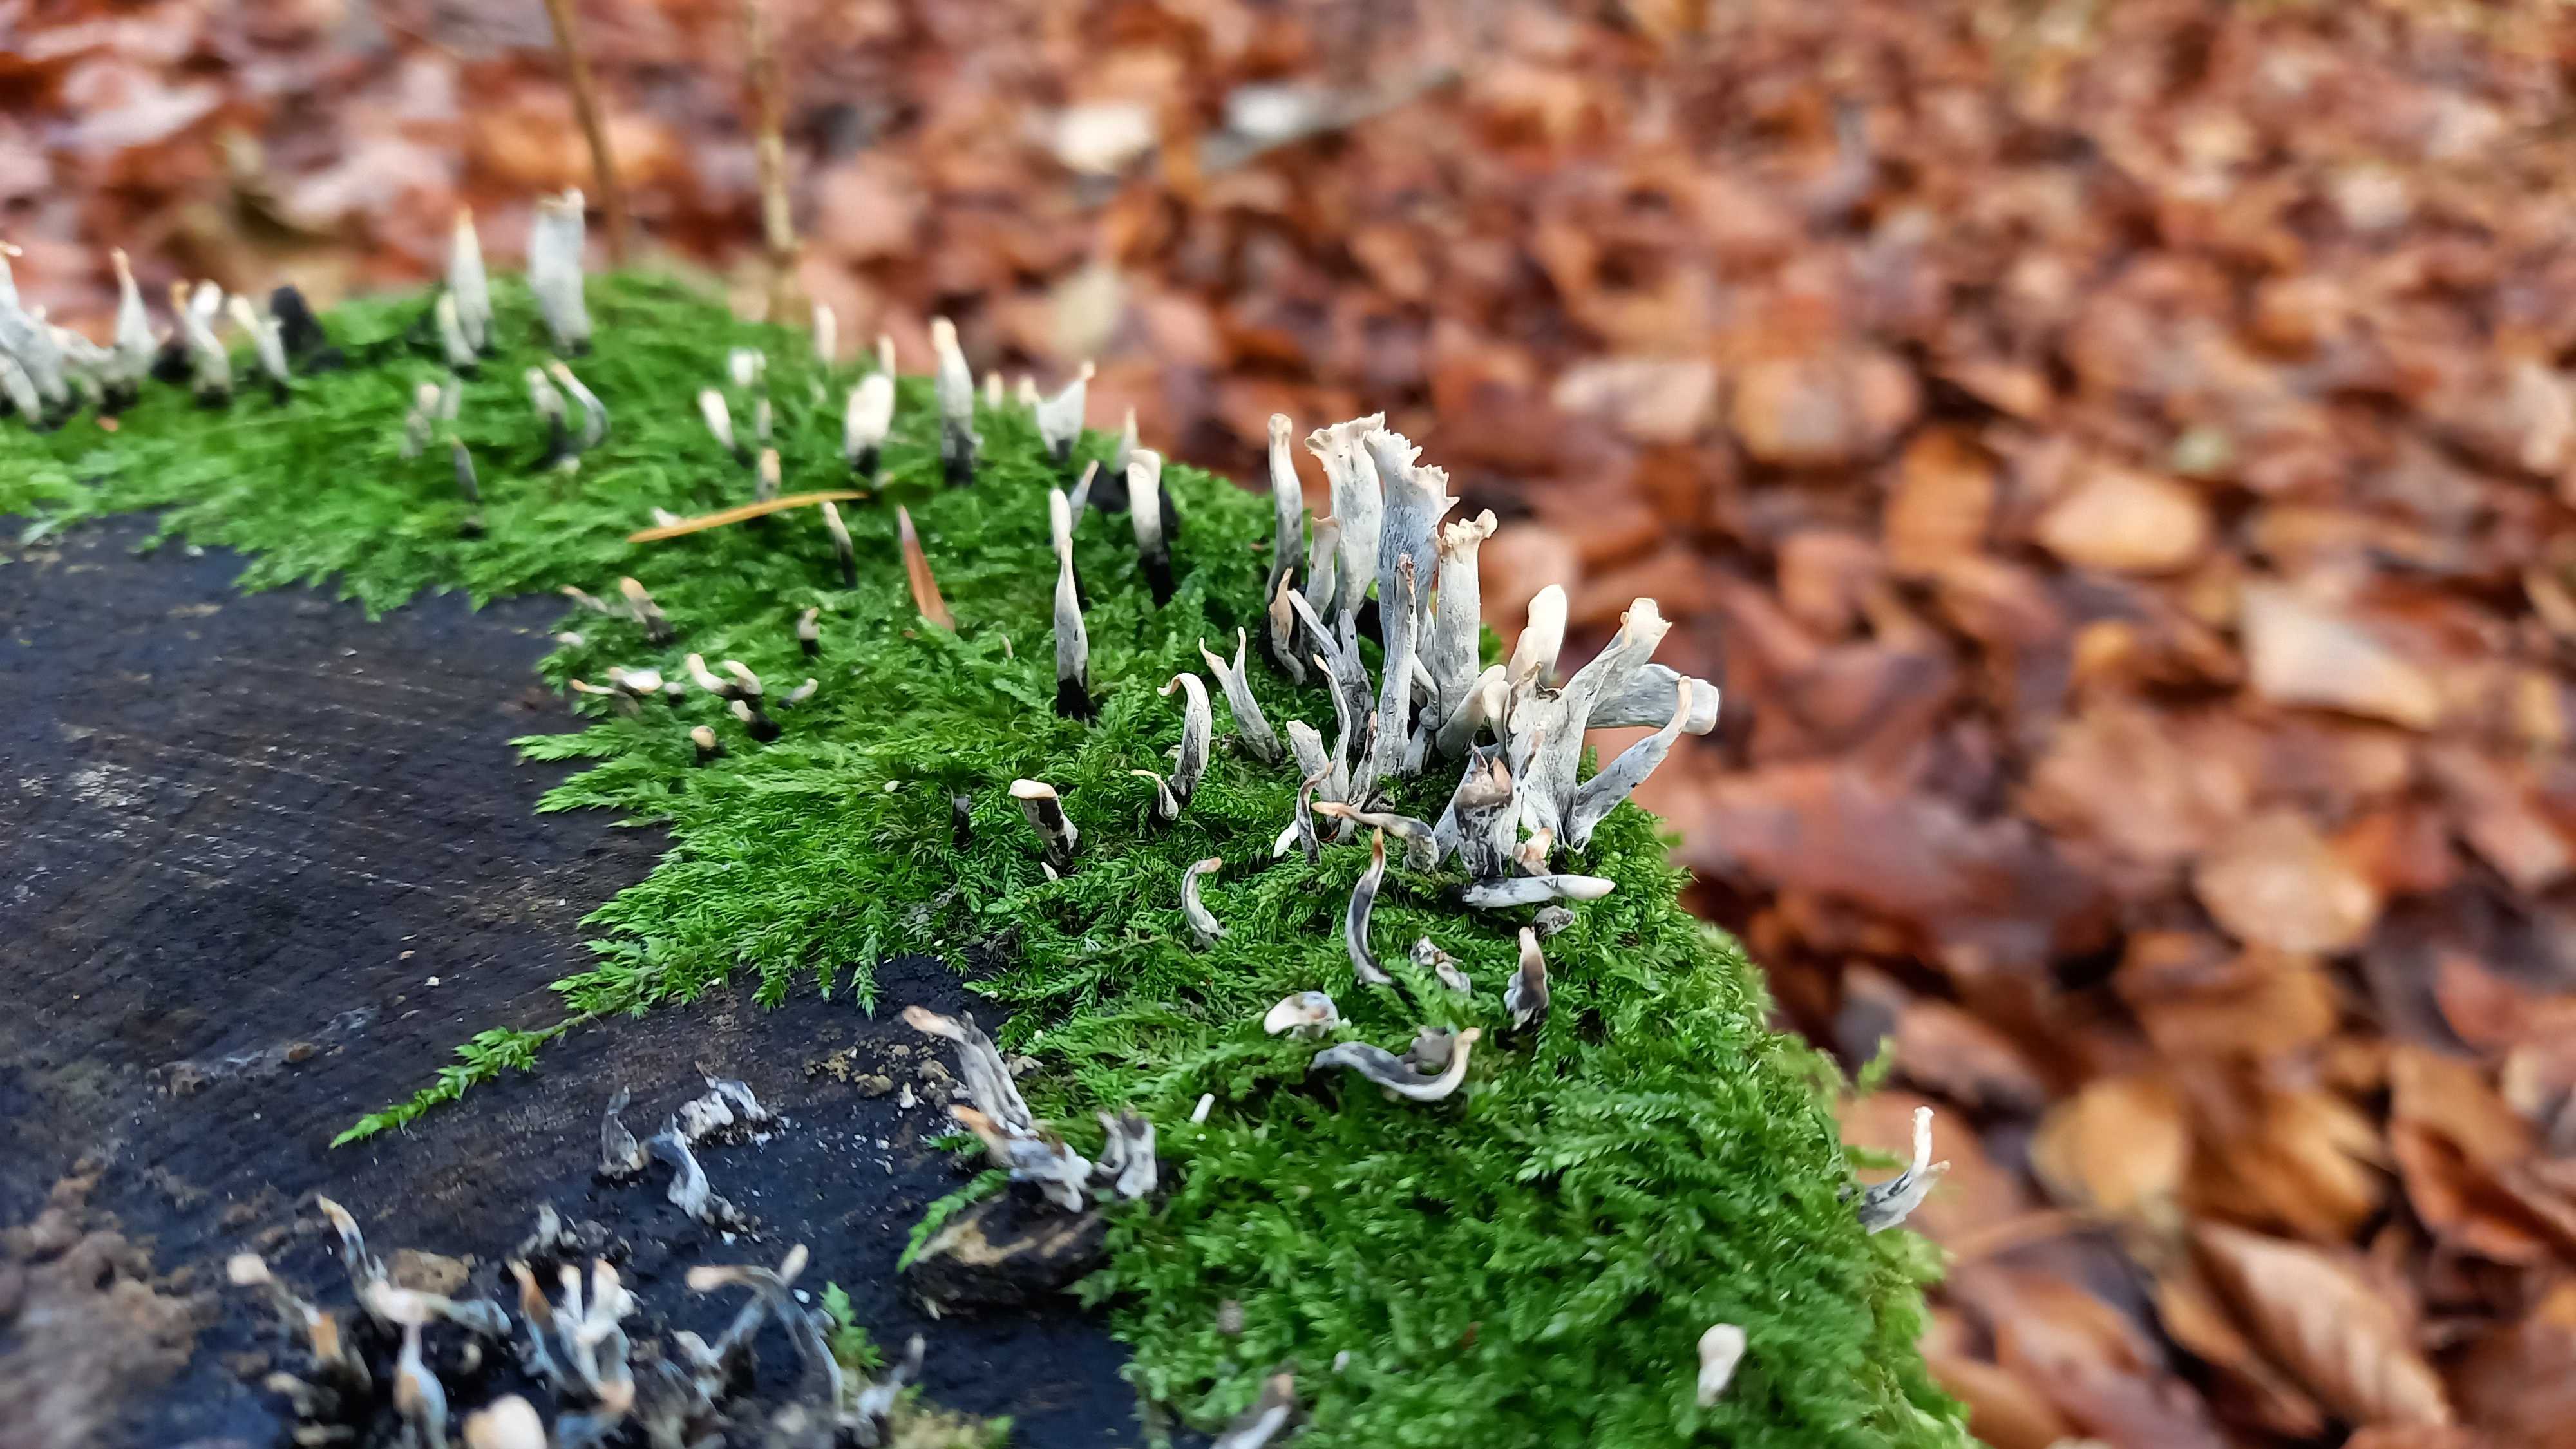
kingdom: Fungi
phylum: Ascomycota
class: Sordariomycetes
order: Xylariales
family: Xylariaceae
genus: Xylaria
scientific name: Xylaria hypoxylon
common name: grenet stødsvamp
